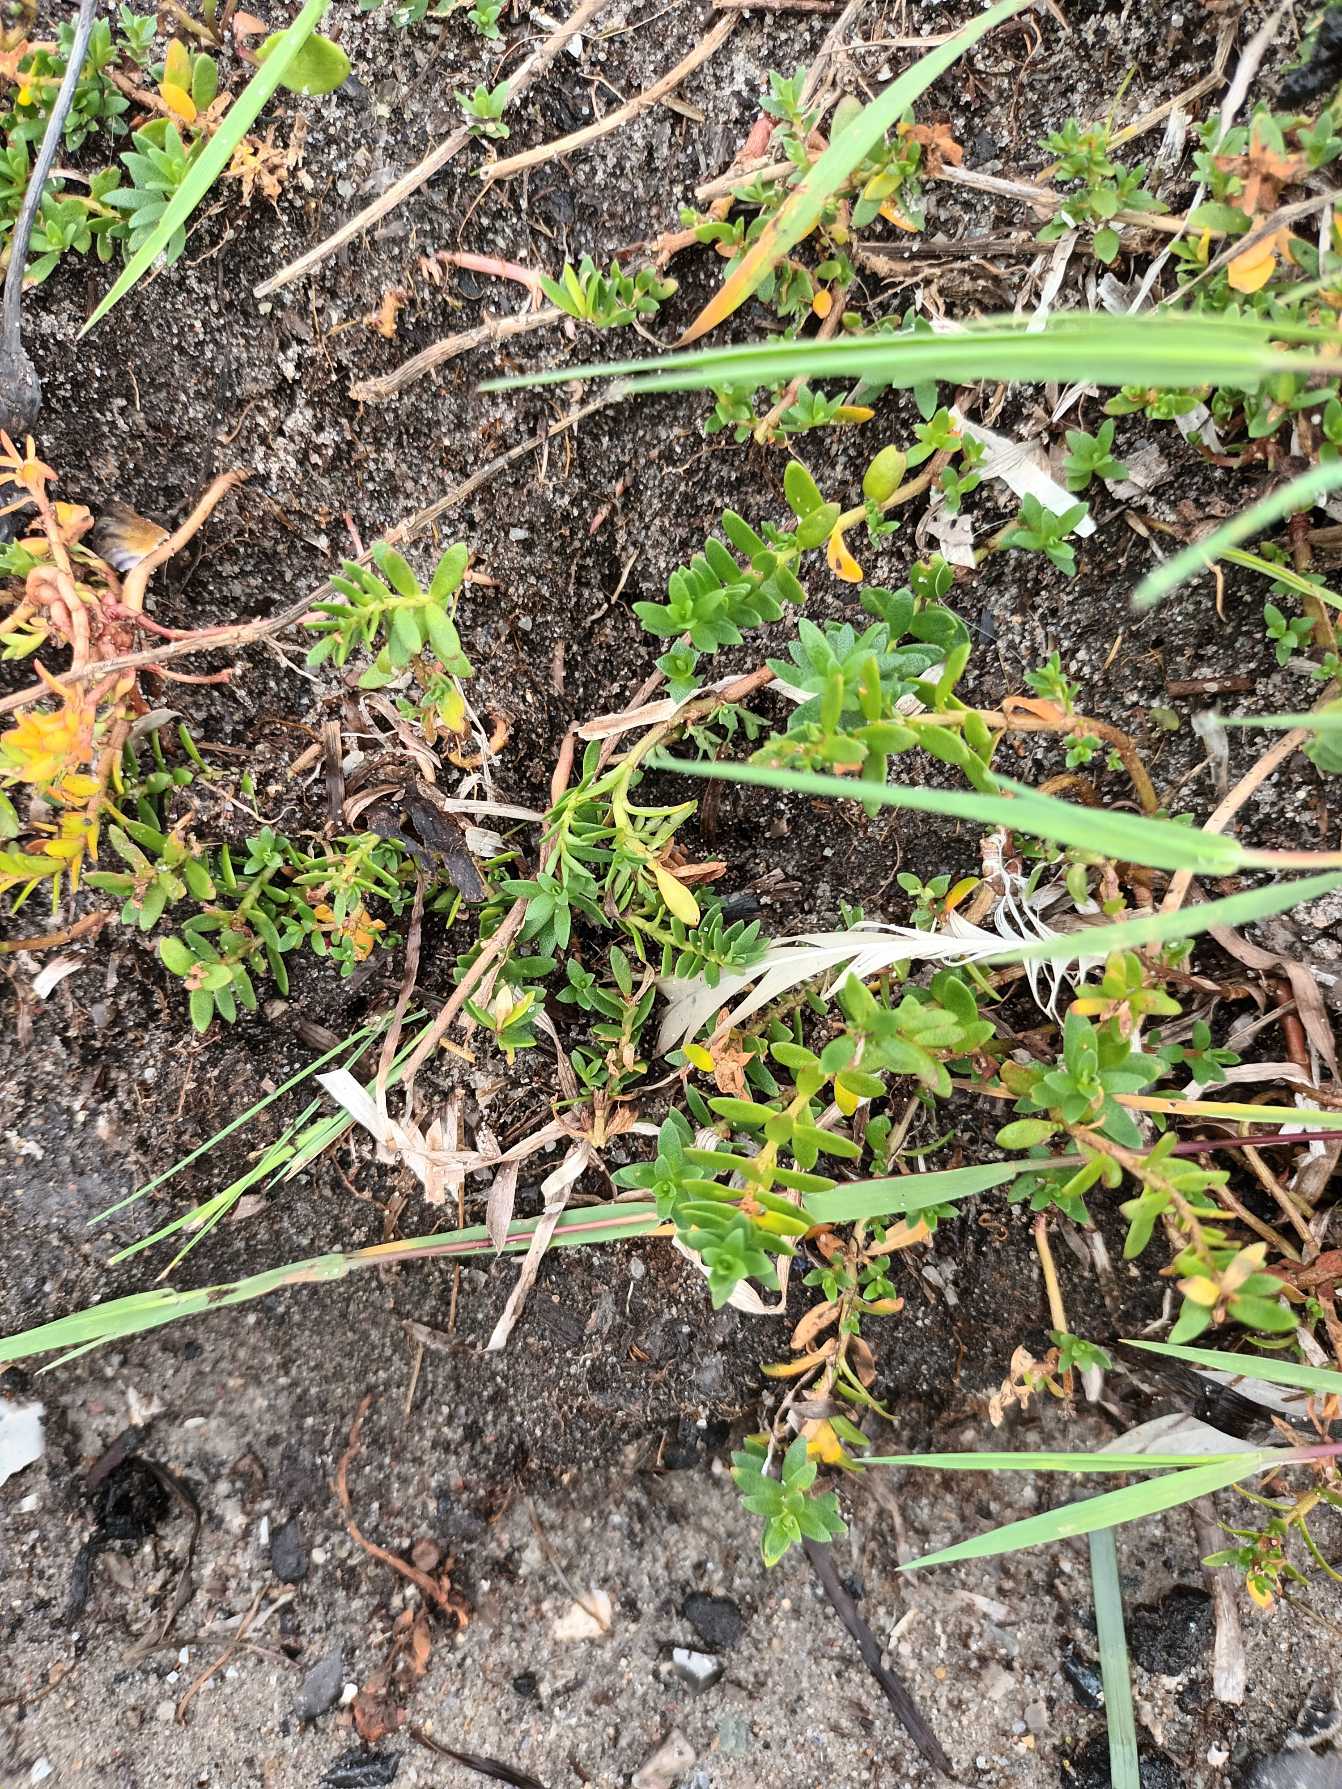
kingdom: Plantae
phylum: Tracheophyta
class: Magnoliopsida
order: Ericales
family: Primulaceae
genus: Lysimachia
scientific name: Lysimachia maritima
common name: Sandkryb
